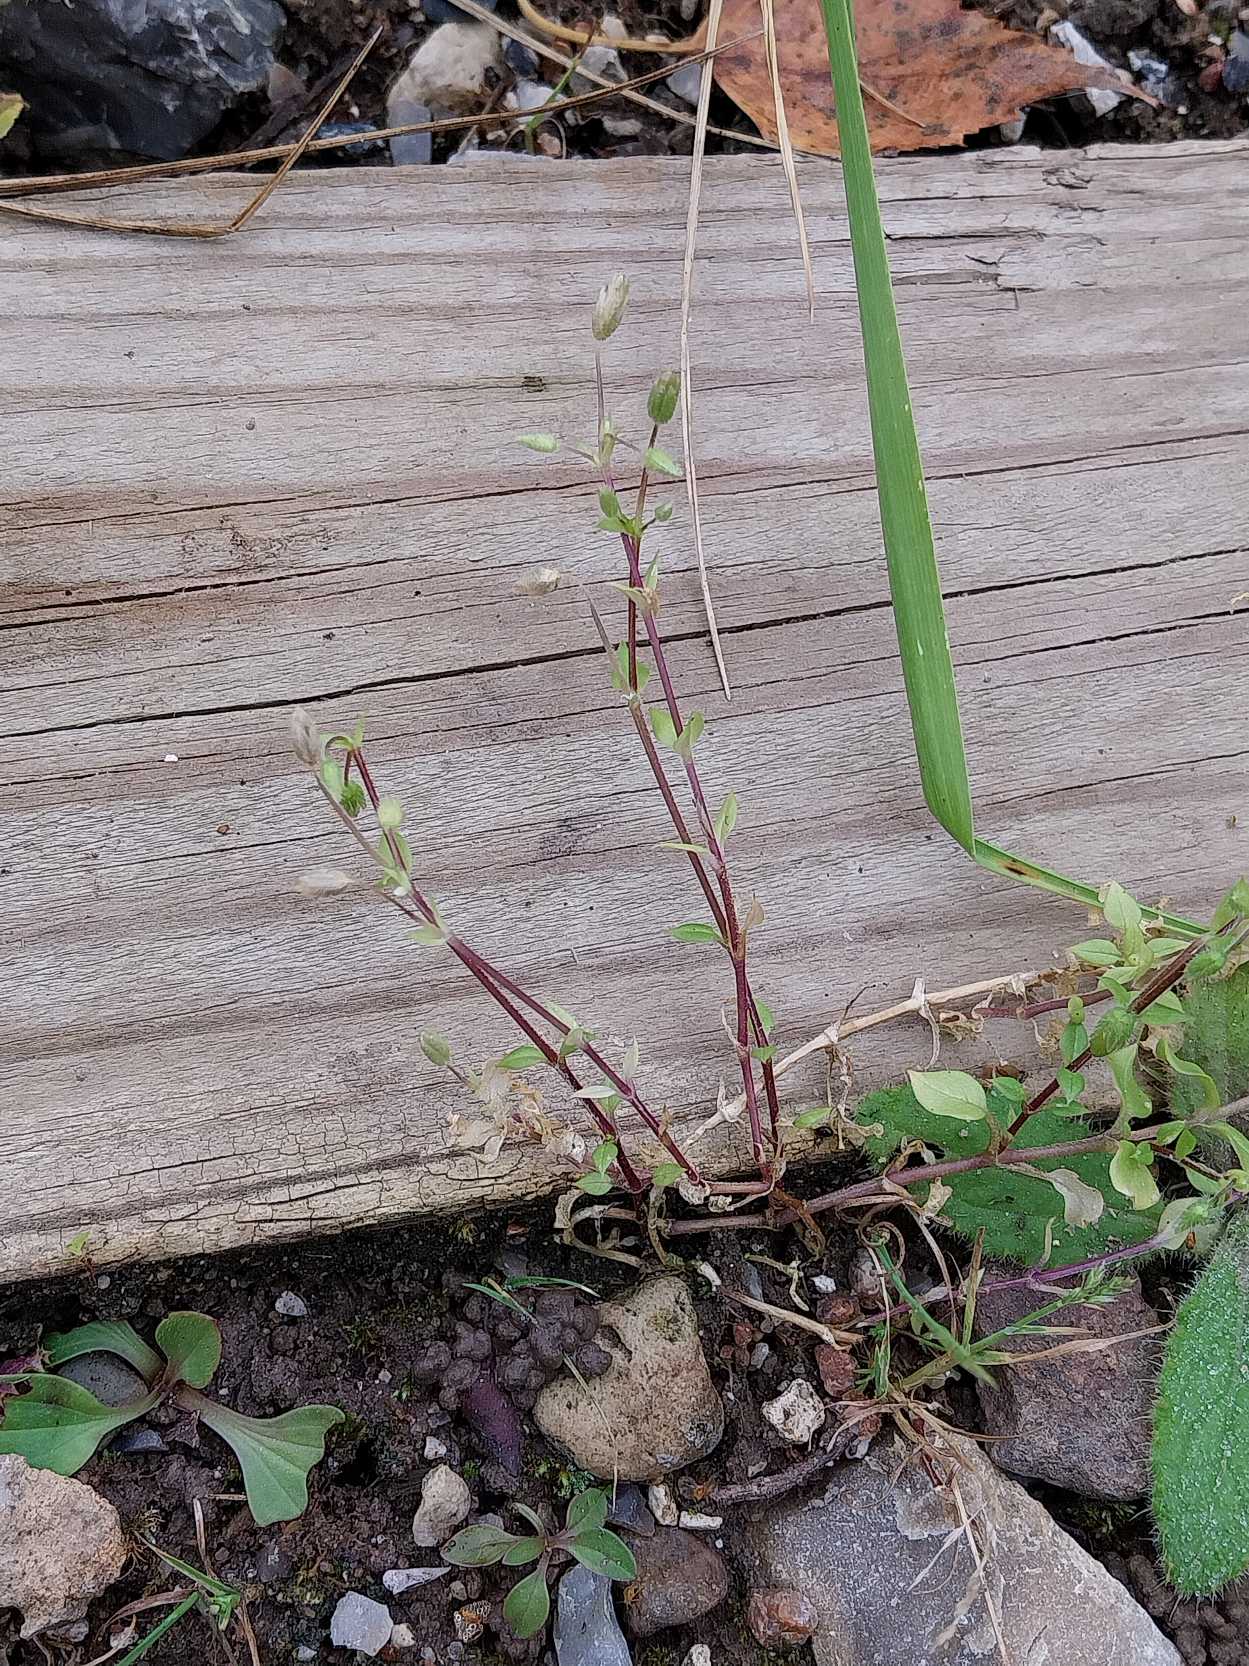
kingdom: Plantae
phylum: Tracheophyta
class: Magnoliopsida
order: Caryophyllales
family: Caryophyllaceae
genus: Stellaria
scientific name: Stellaria media
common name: Almindelig fuglegræs
